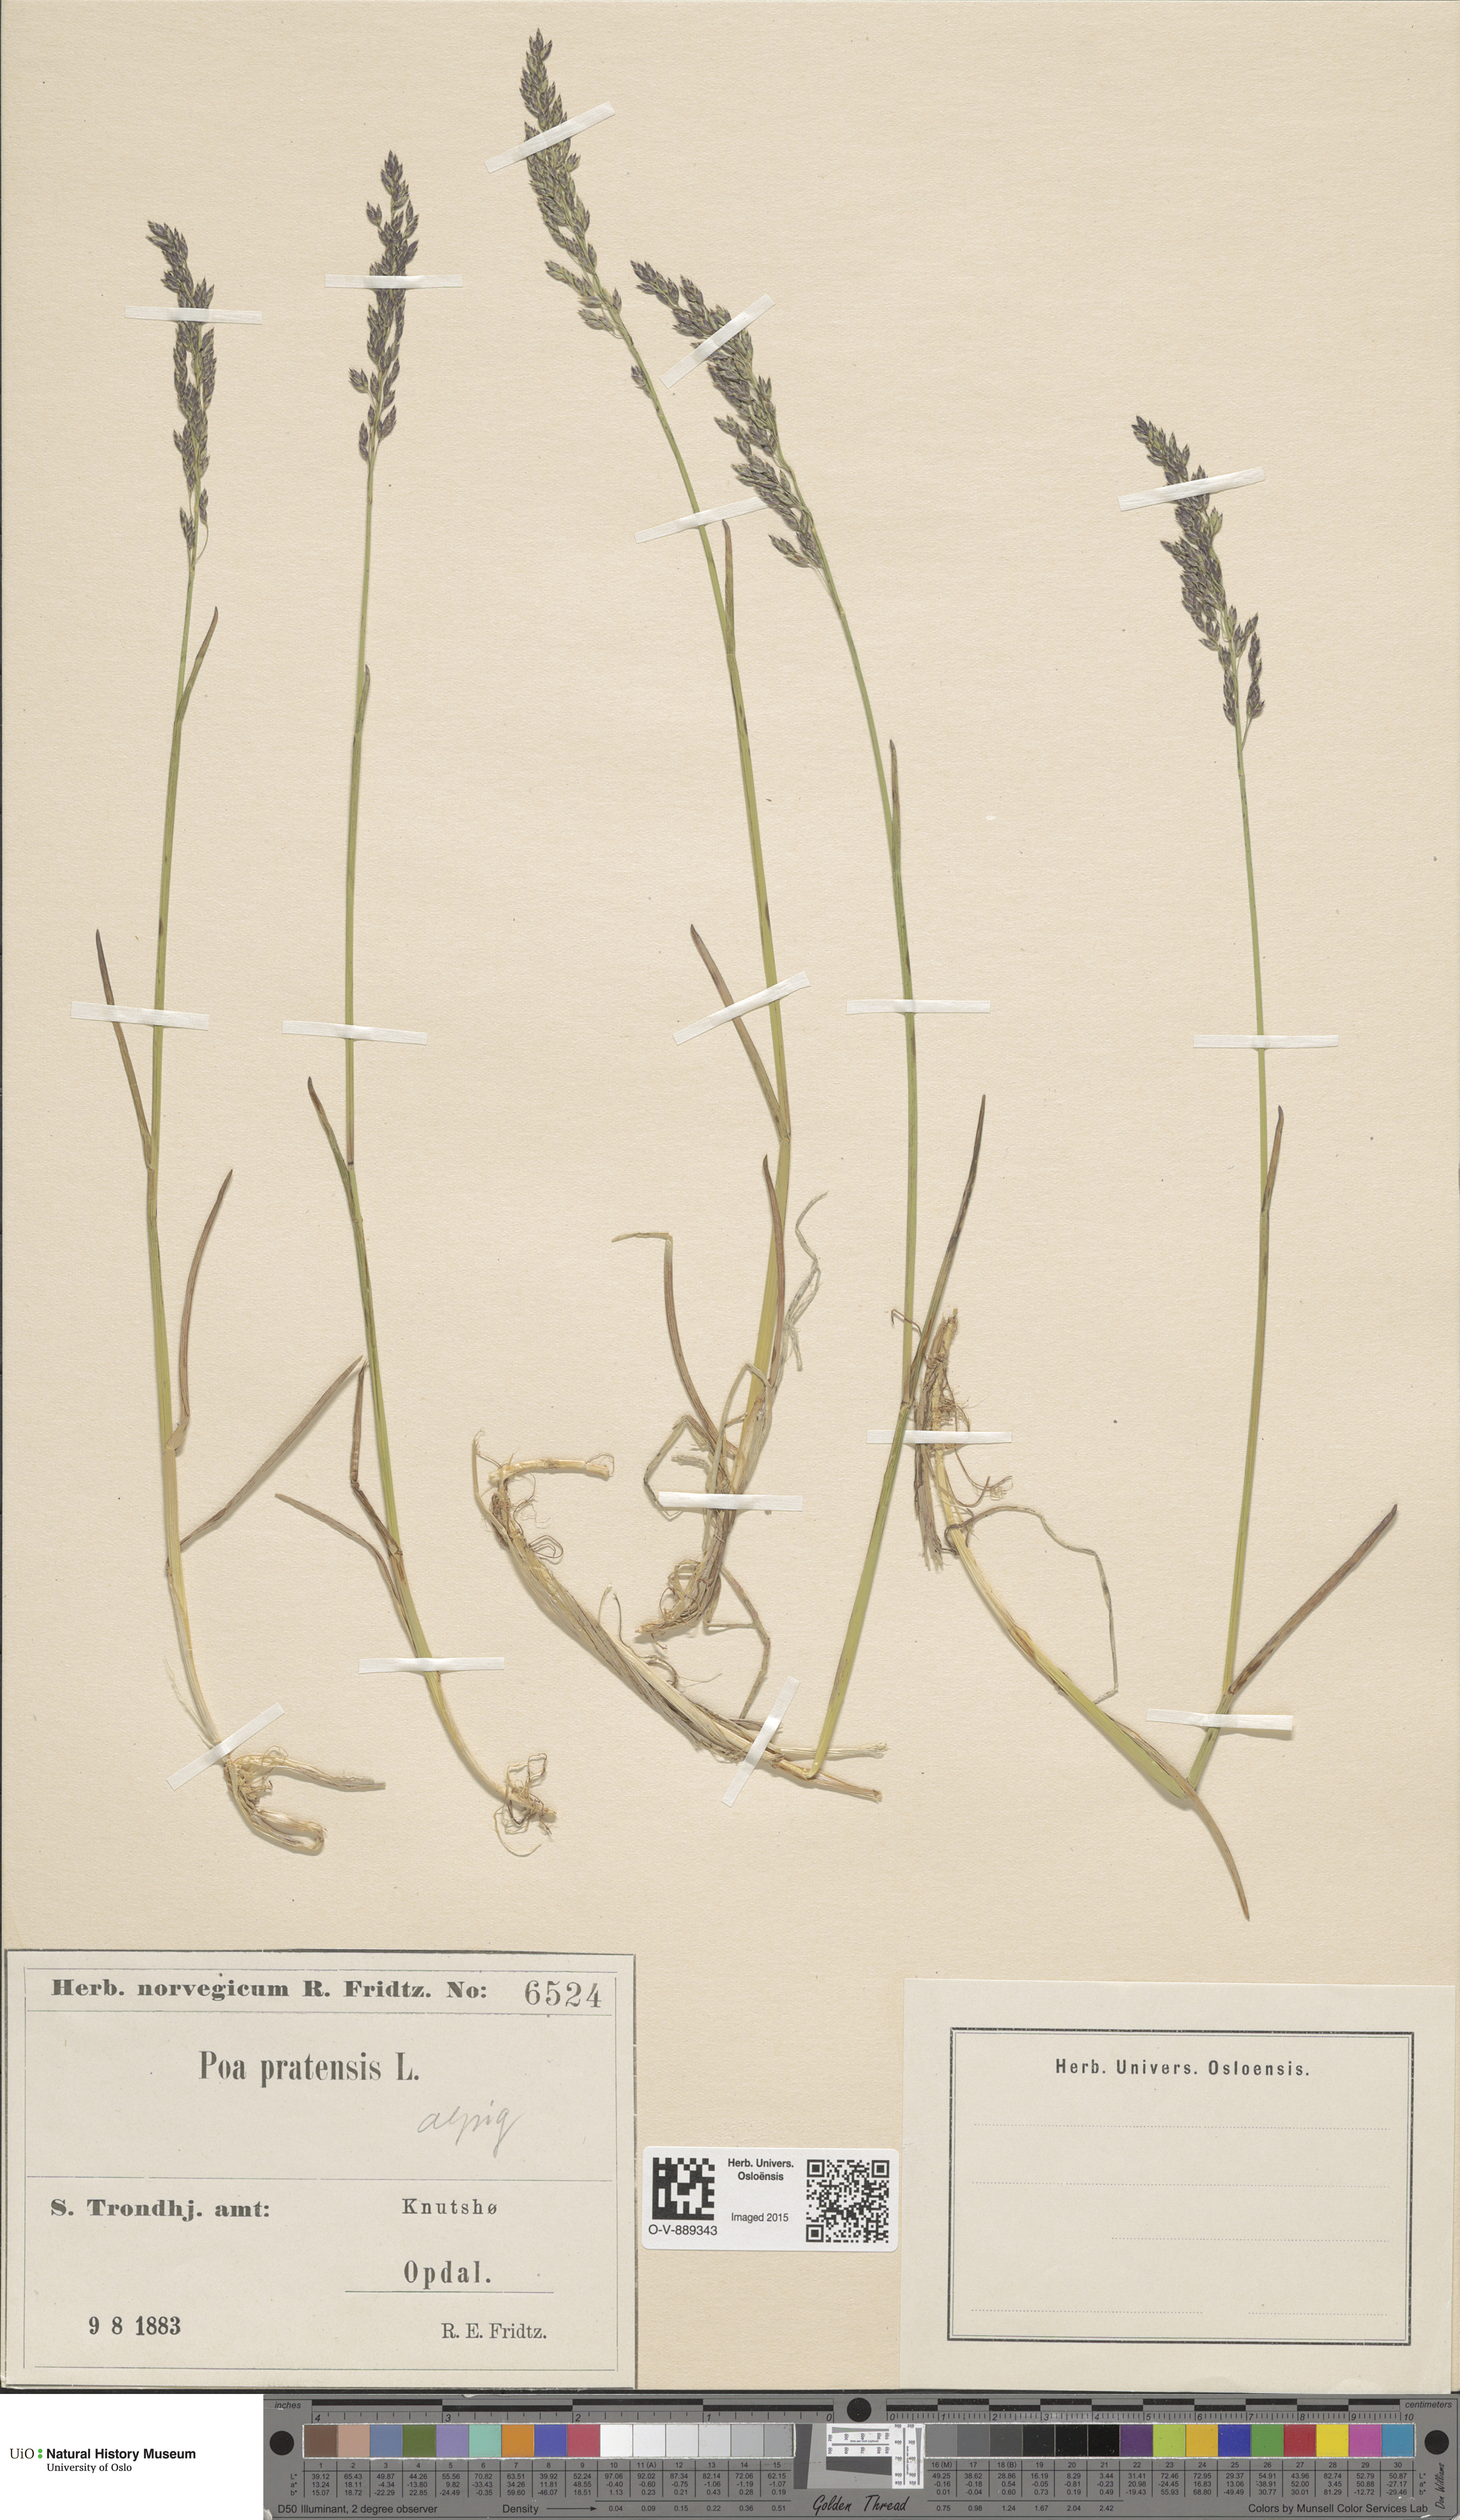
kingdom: Plantae
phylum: Tracheophyta
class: Liliopsida
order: Poales
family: Poaceae
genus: Poa
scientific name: Poa alpigena
